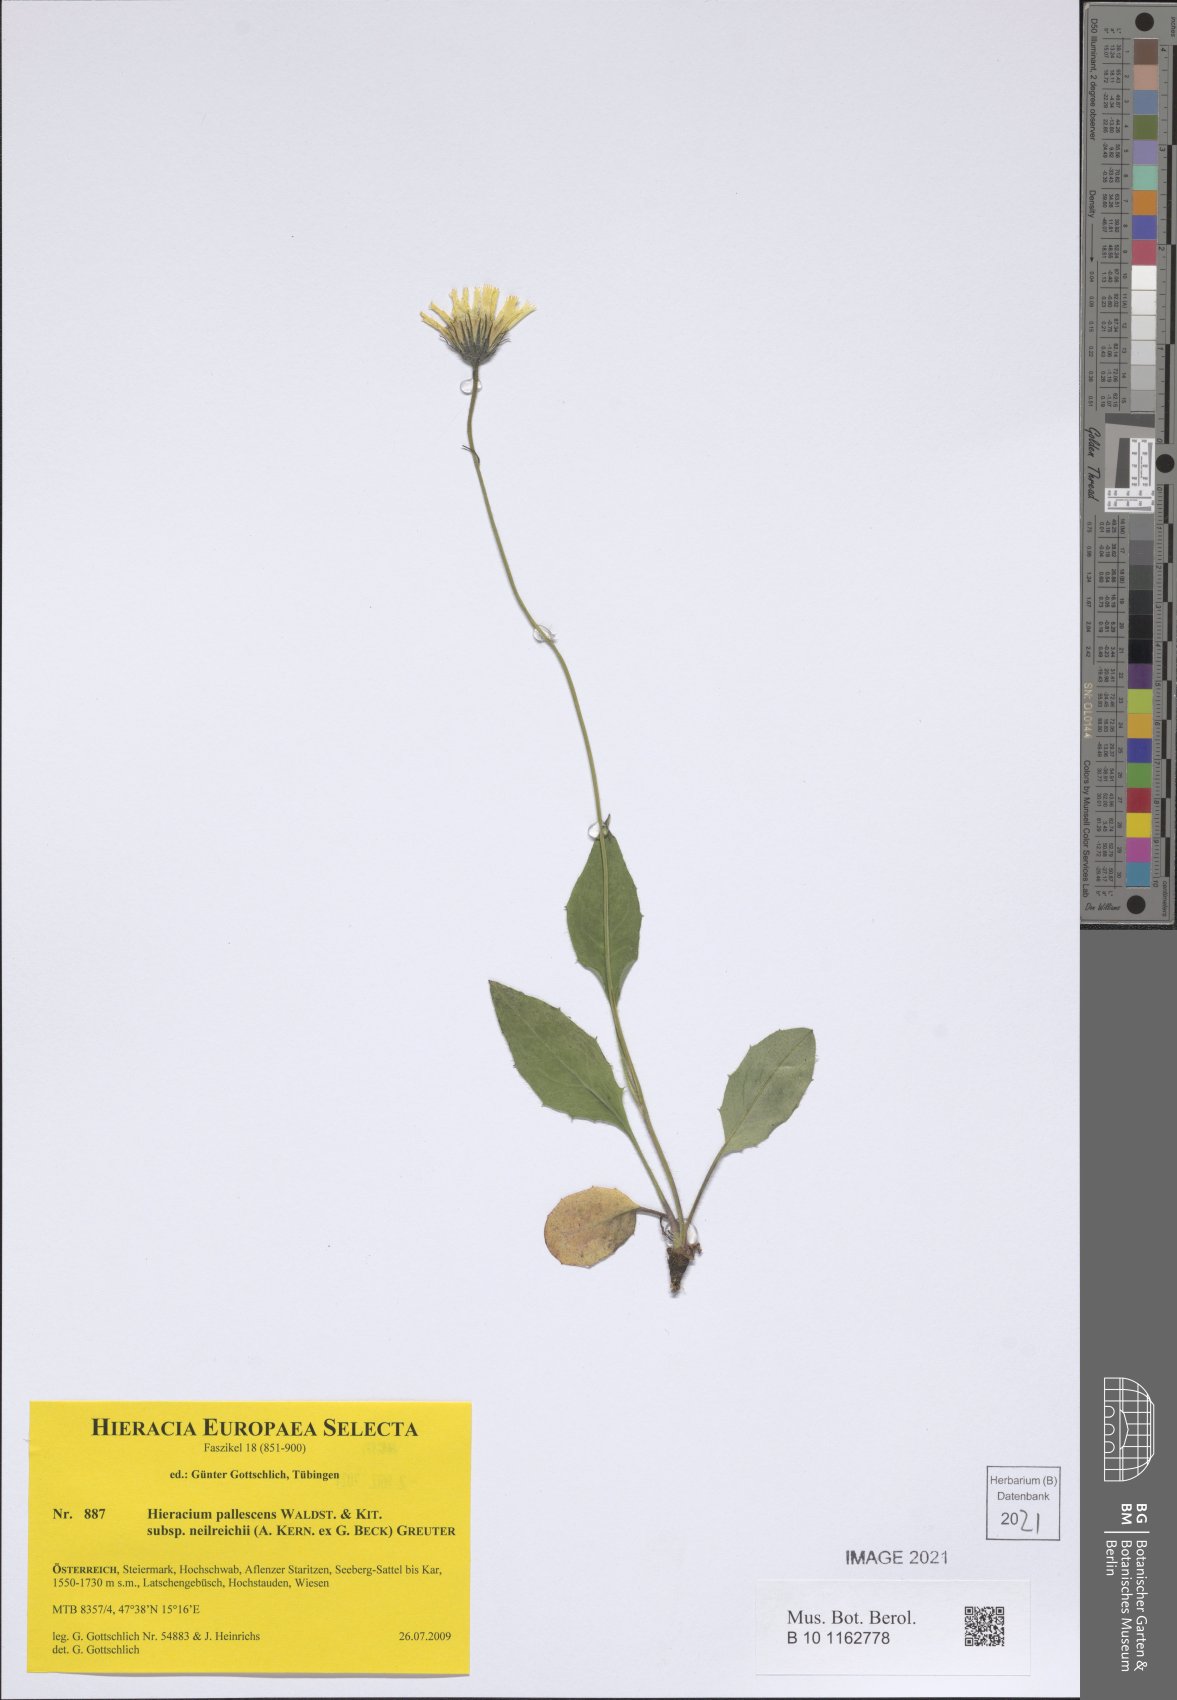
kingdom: Plantae
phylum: Tracheophyta
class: Magnoliopsida
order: Asterales
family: Asteraceae
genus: Hieracium
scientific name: Hieracium pallescens
